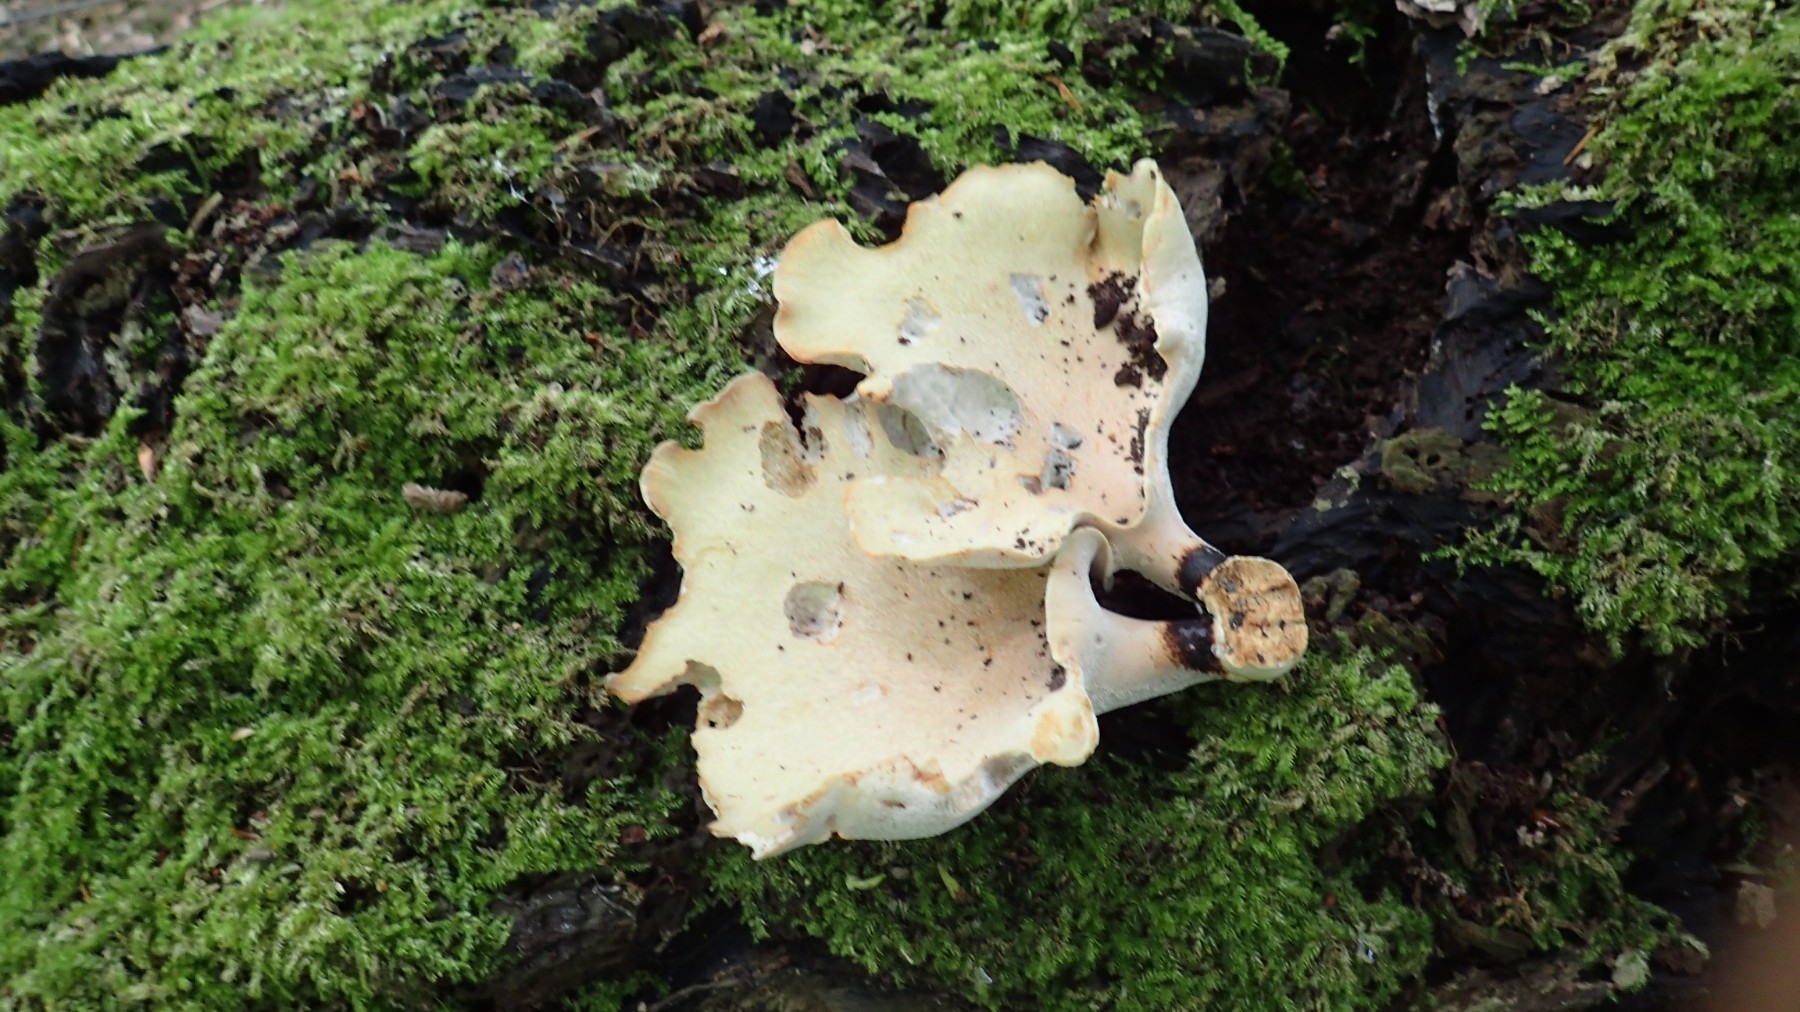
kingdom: Fungi
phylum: Basidiomycota
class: Agaricomycetes
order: Polyporales
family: Polyporaceae
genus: Cerioporus
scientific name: Cerioporus varius
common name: foranderlig stilkporesvamp
